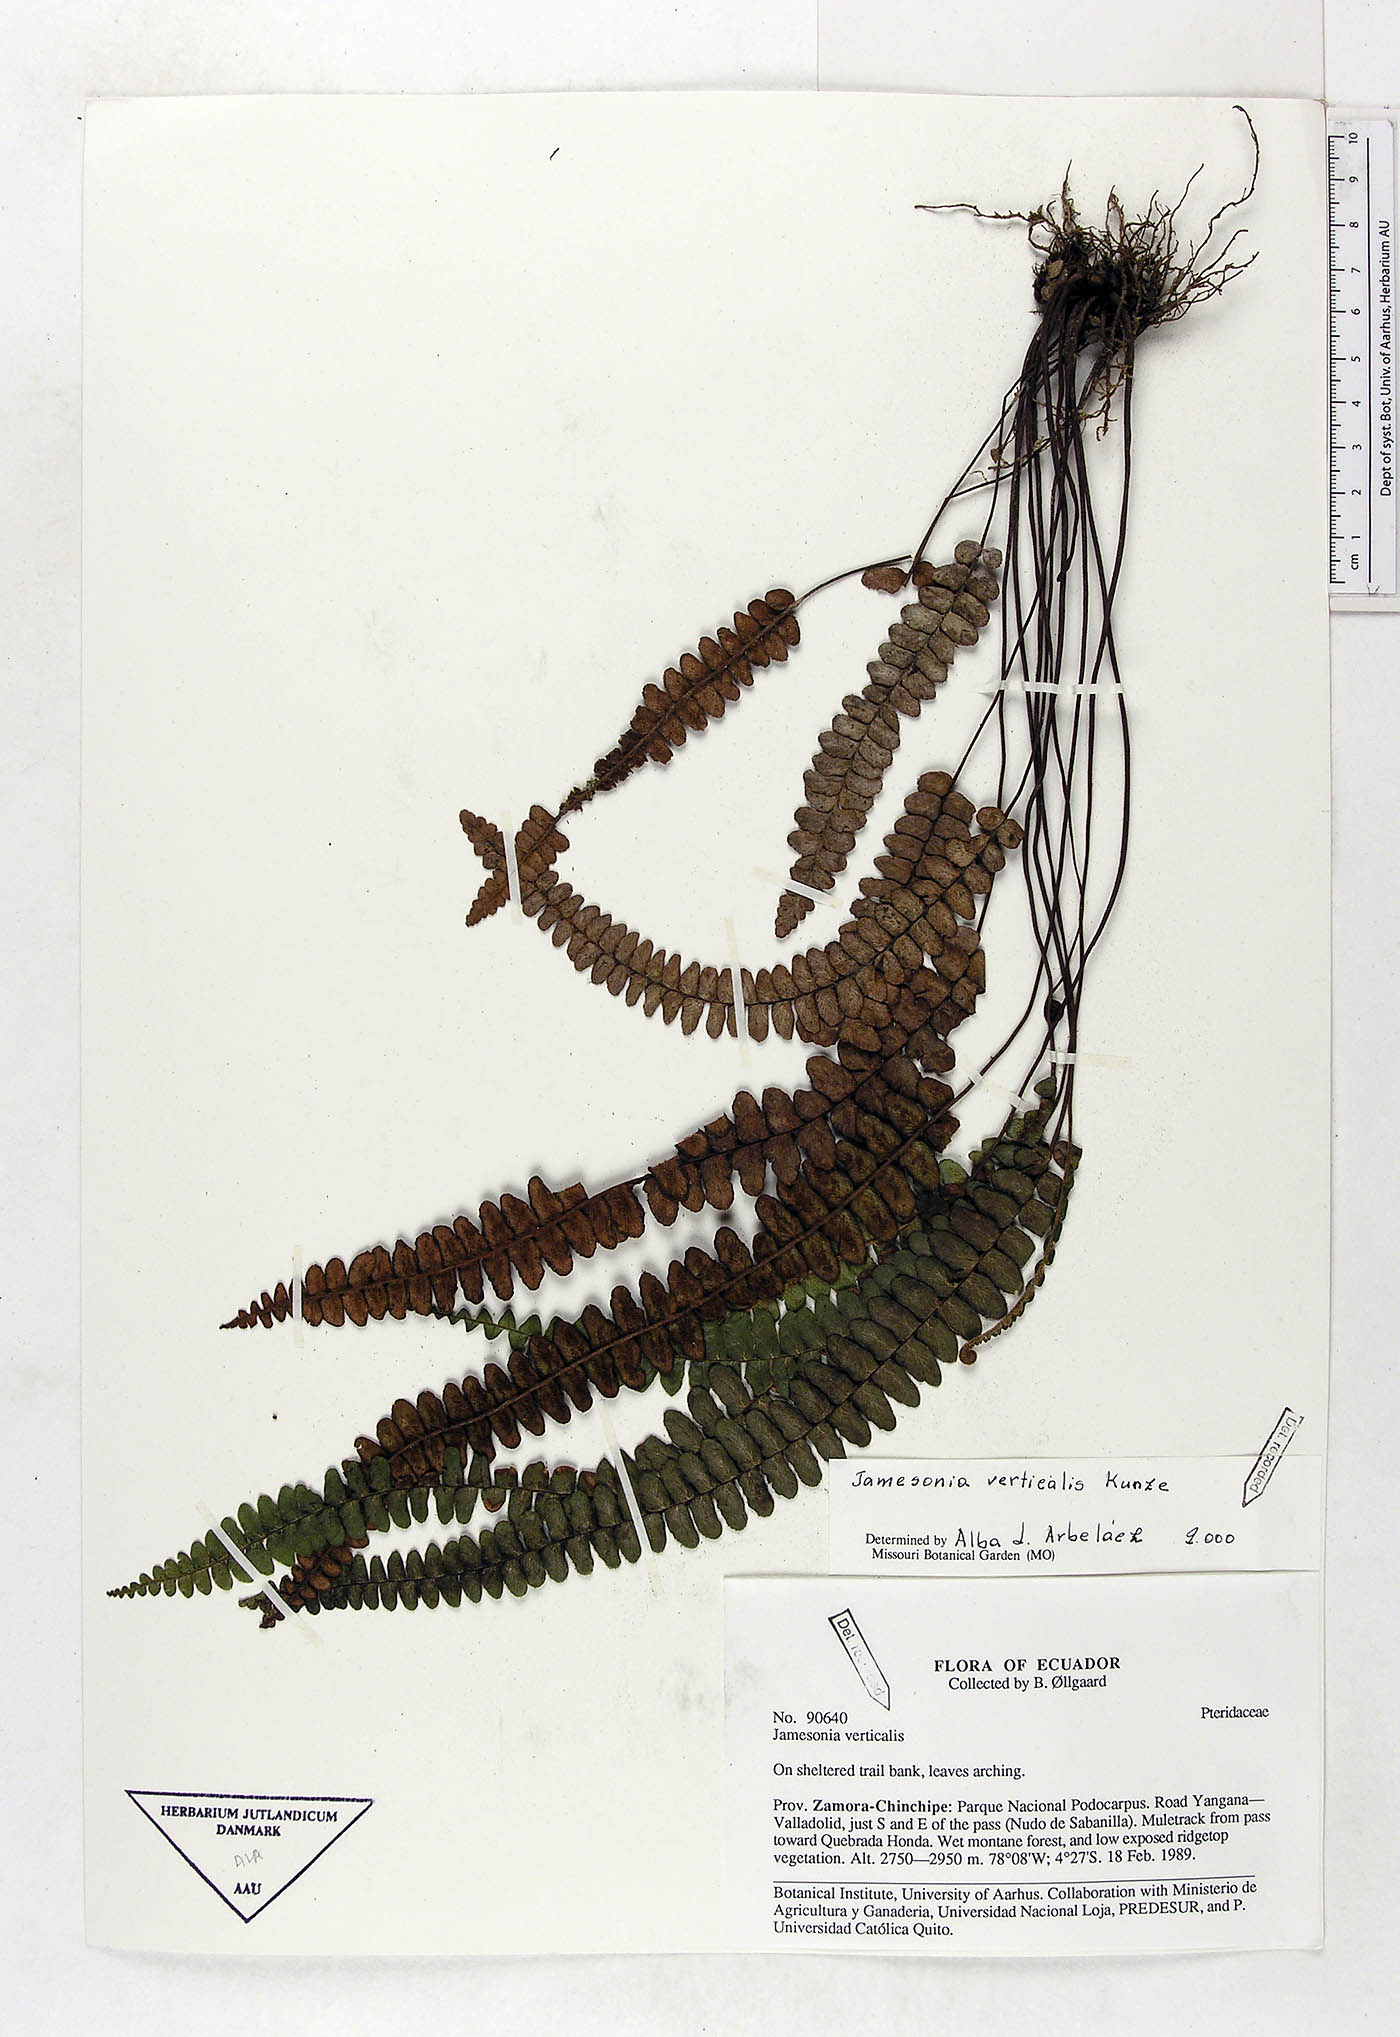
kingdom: Plantae
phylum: Tracheophyta
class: Polypodiopsida
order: Polypodiales
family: Pteridaceae
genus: Jamesonia
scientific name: Jamesonia verticalis
